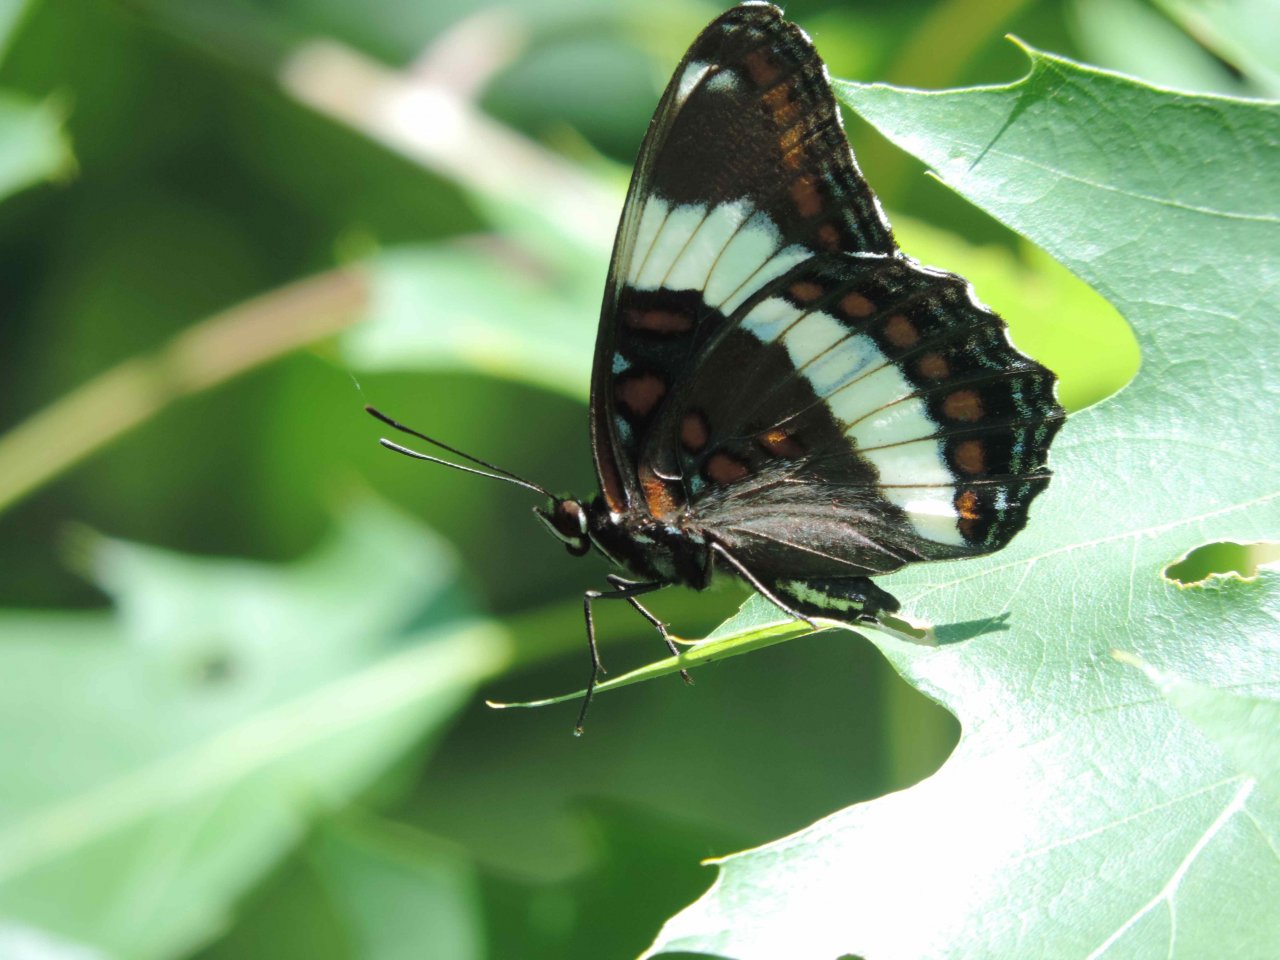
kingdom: Animalia
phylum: Arthropoda
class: Insecta
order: Lepidoptera
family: Nymphalidae
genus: Limenitis
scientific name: Limenitis arthemis
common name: Red-spotted Admiral
